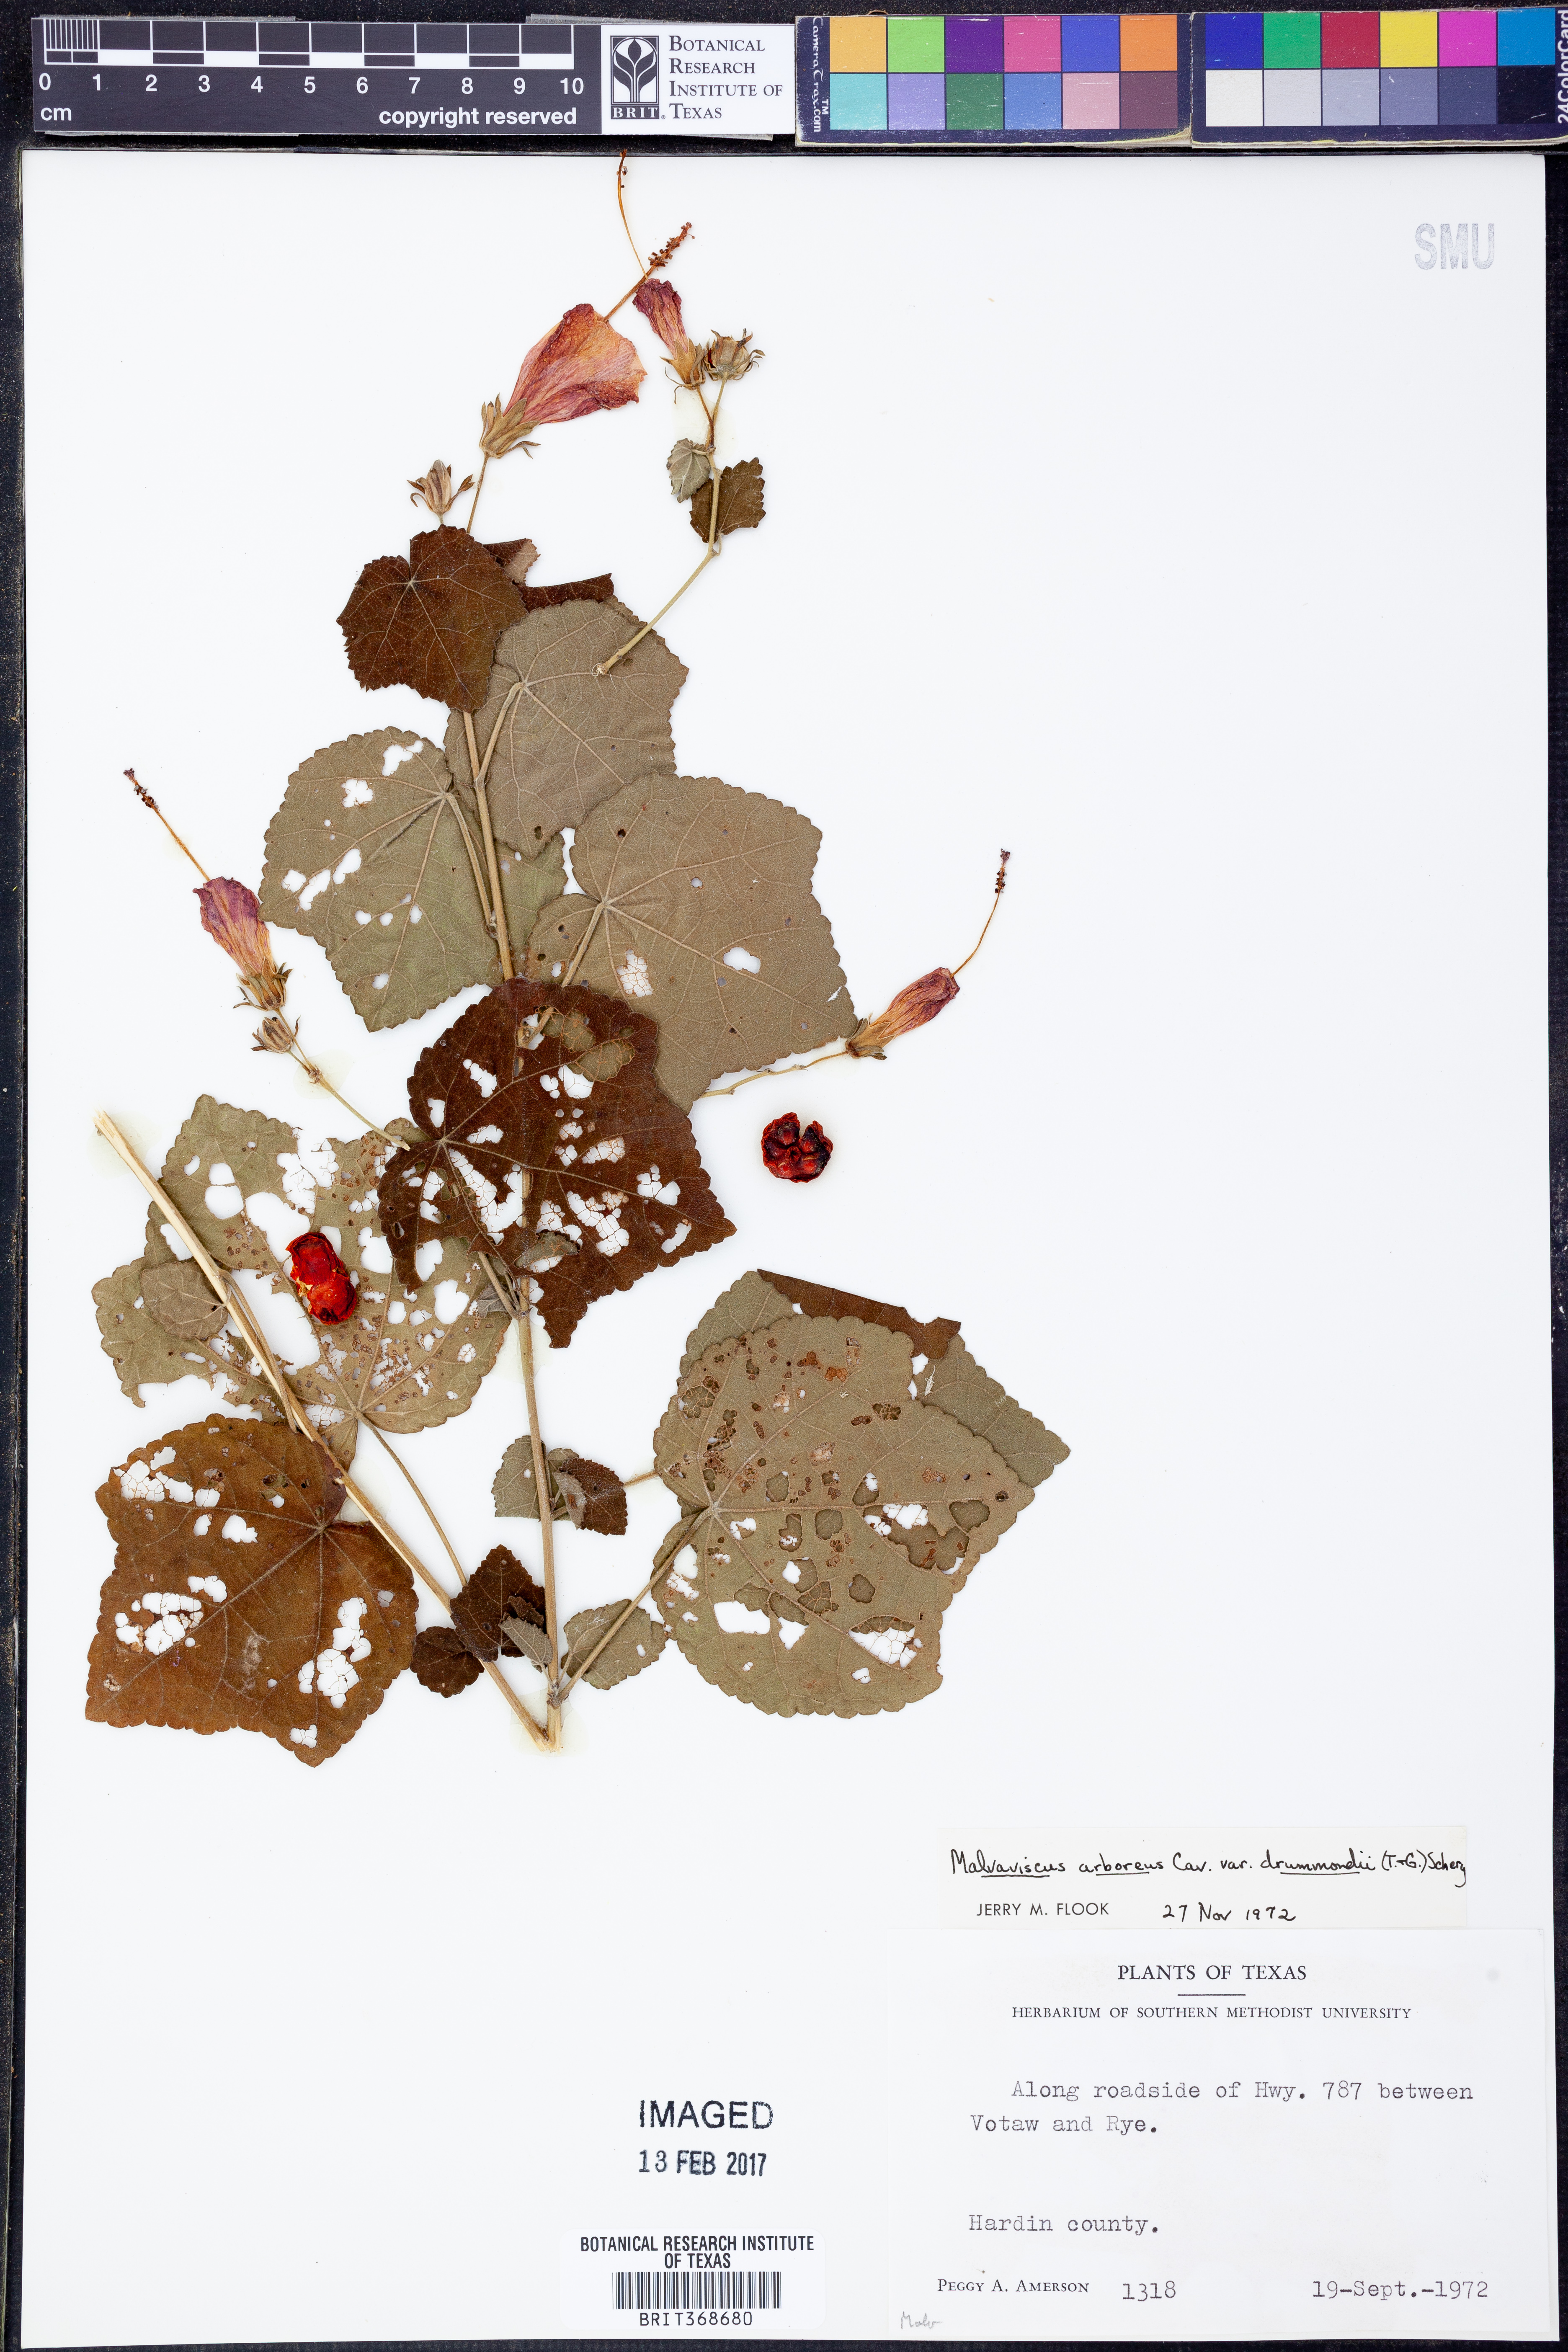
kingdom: Plantae
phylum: Tracheophyta
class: Magnoliopsida
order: Malvales
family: Malvaceae
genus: Malvaviscus
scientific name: Malvaviscus arboreus
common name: Wax mallow
